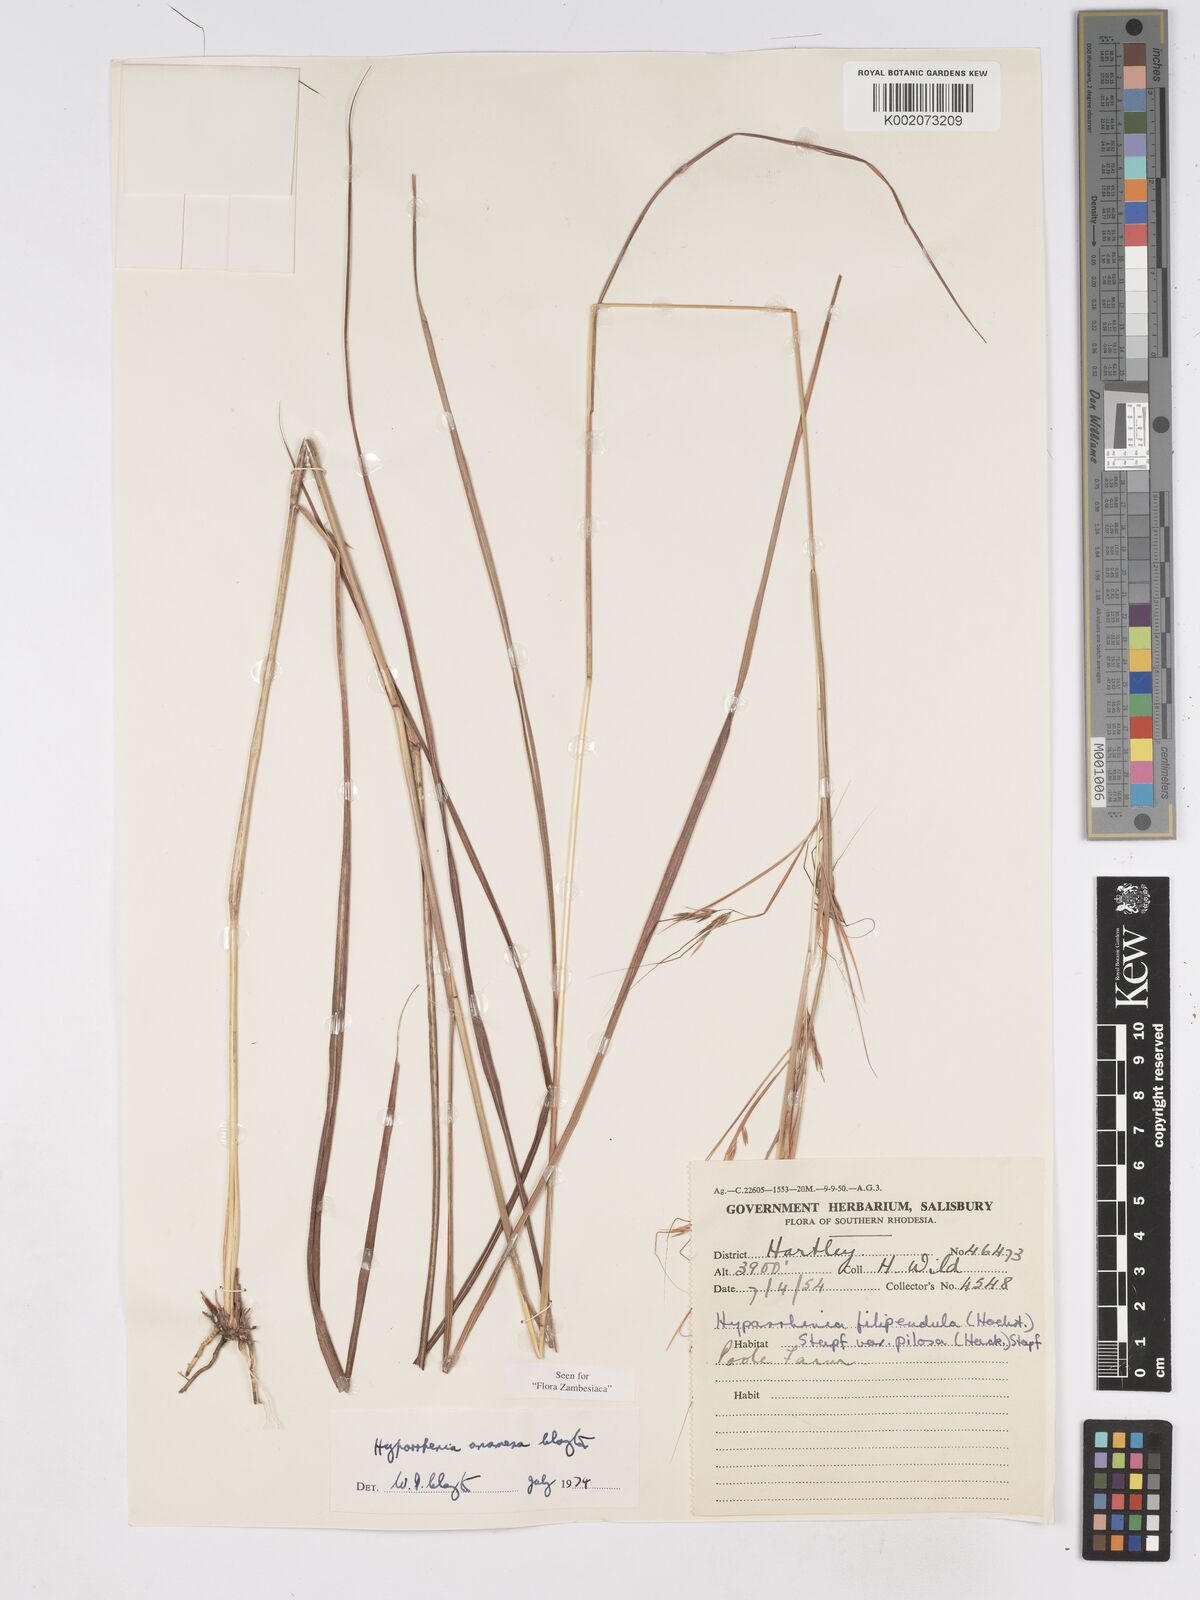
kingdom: Plantae
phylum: Tracheophyta
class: Liliopsida
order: Poales
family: Poaceae
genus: Hyparrhenia
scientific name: Hyparrhenia anamesa
